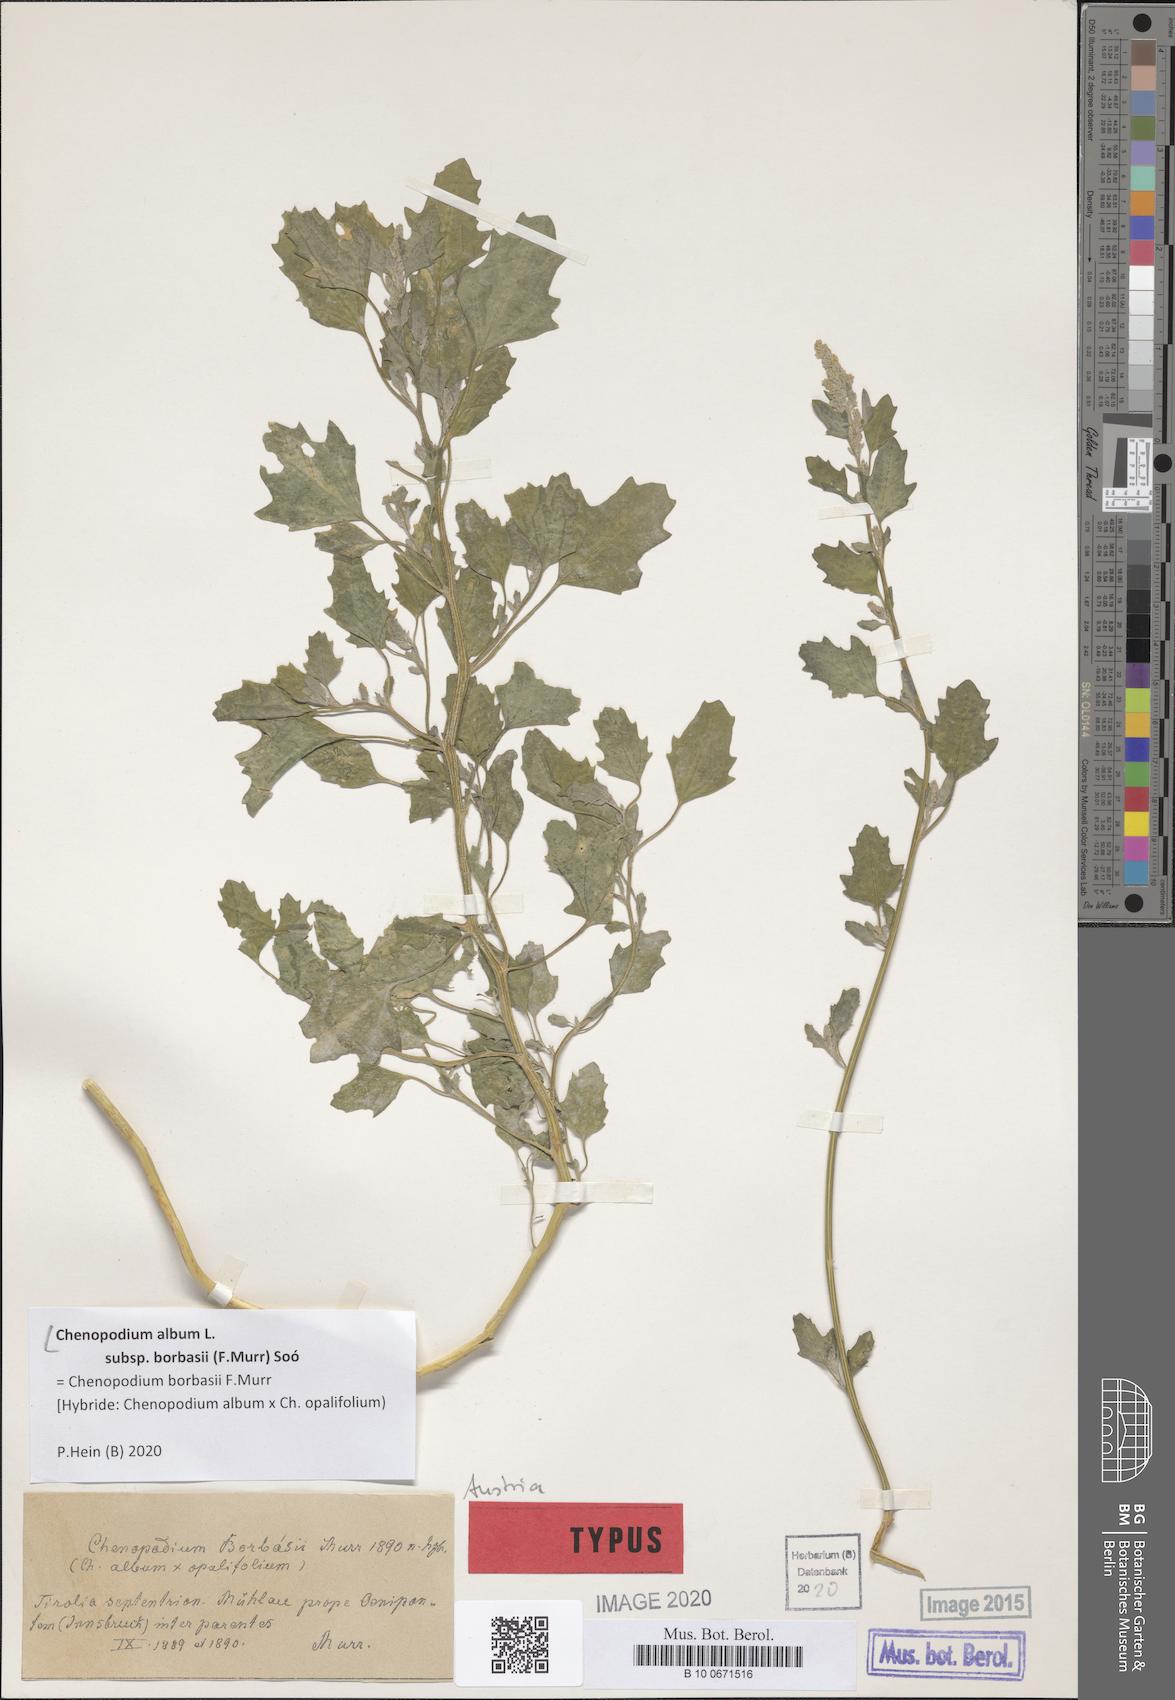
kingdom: Plantae
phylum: Tracheophyta
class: Magnoliopsida
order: Caryophyllales
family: Amaranthaceae
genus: Chenopodium
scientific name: Chenopodium borbasii
